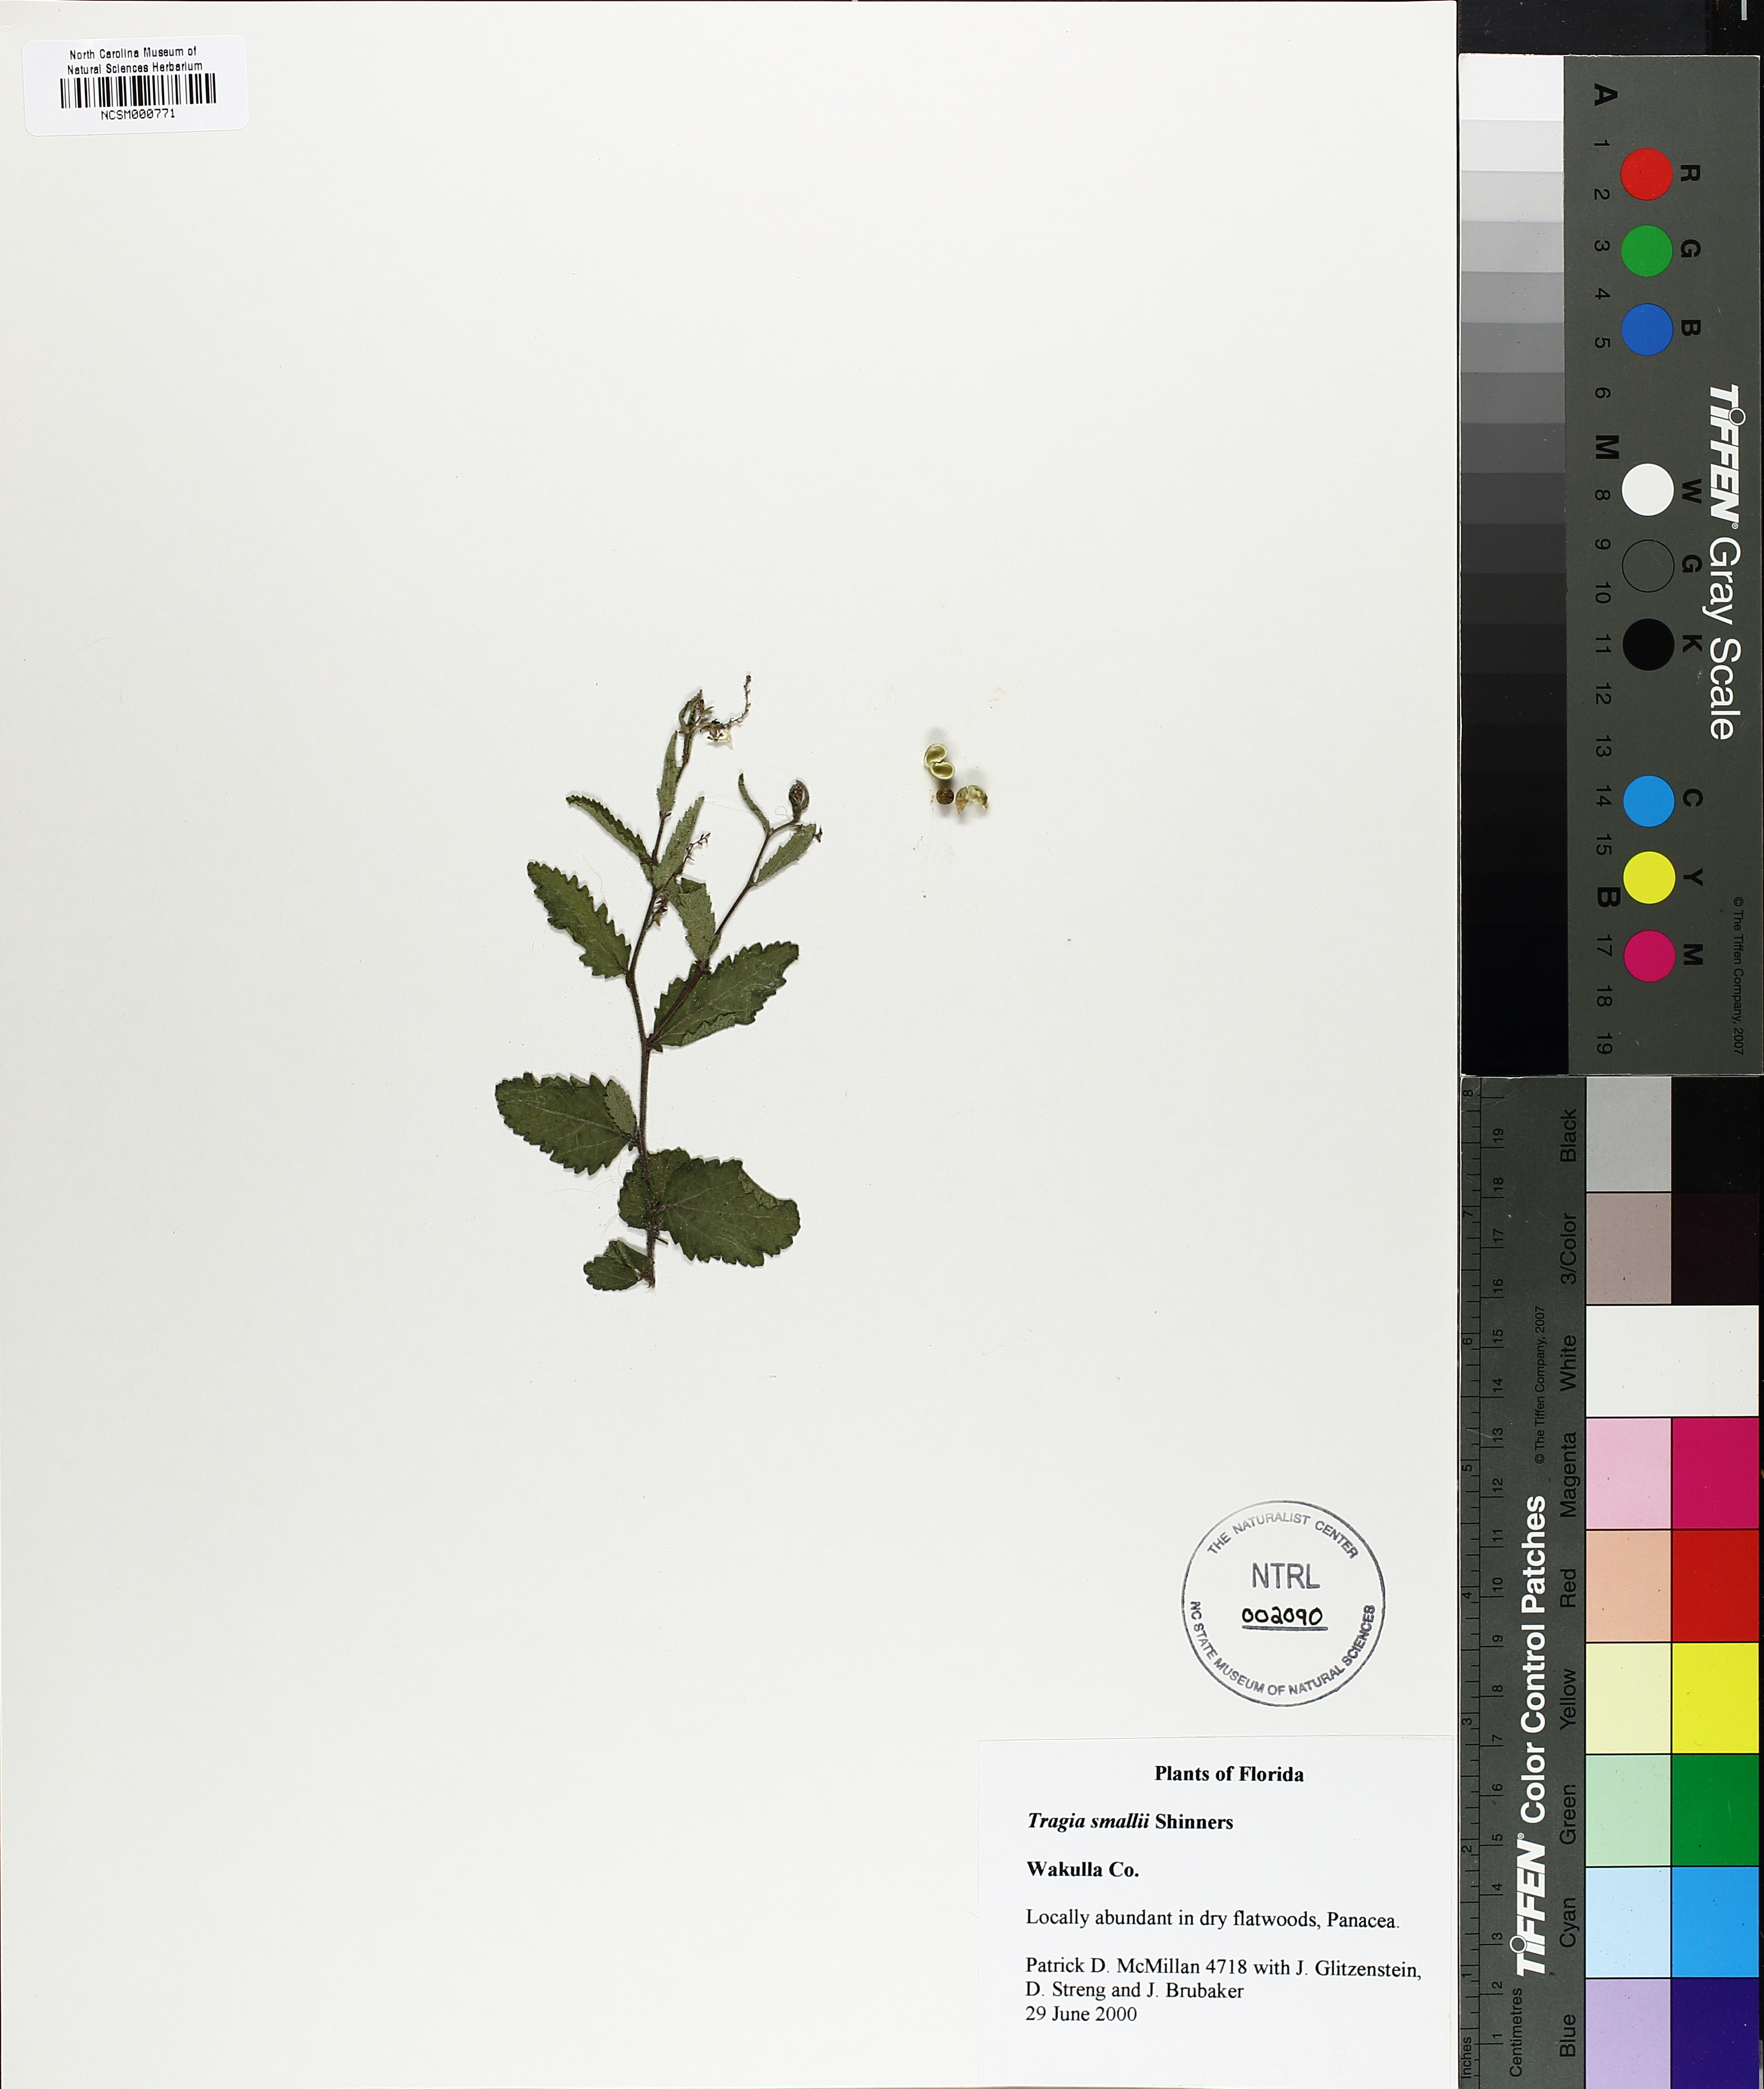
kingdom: Plantae
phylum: Tracheophyta
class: Magnoliopsida
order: Malpighiales
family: Euphorbiaceae
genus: Tragia
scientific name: Tragia smallii
